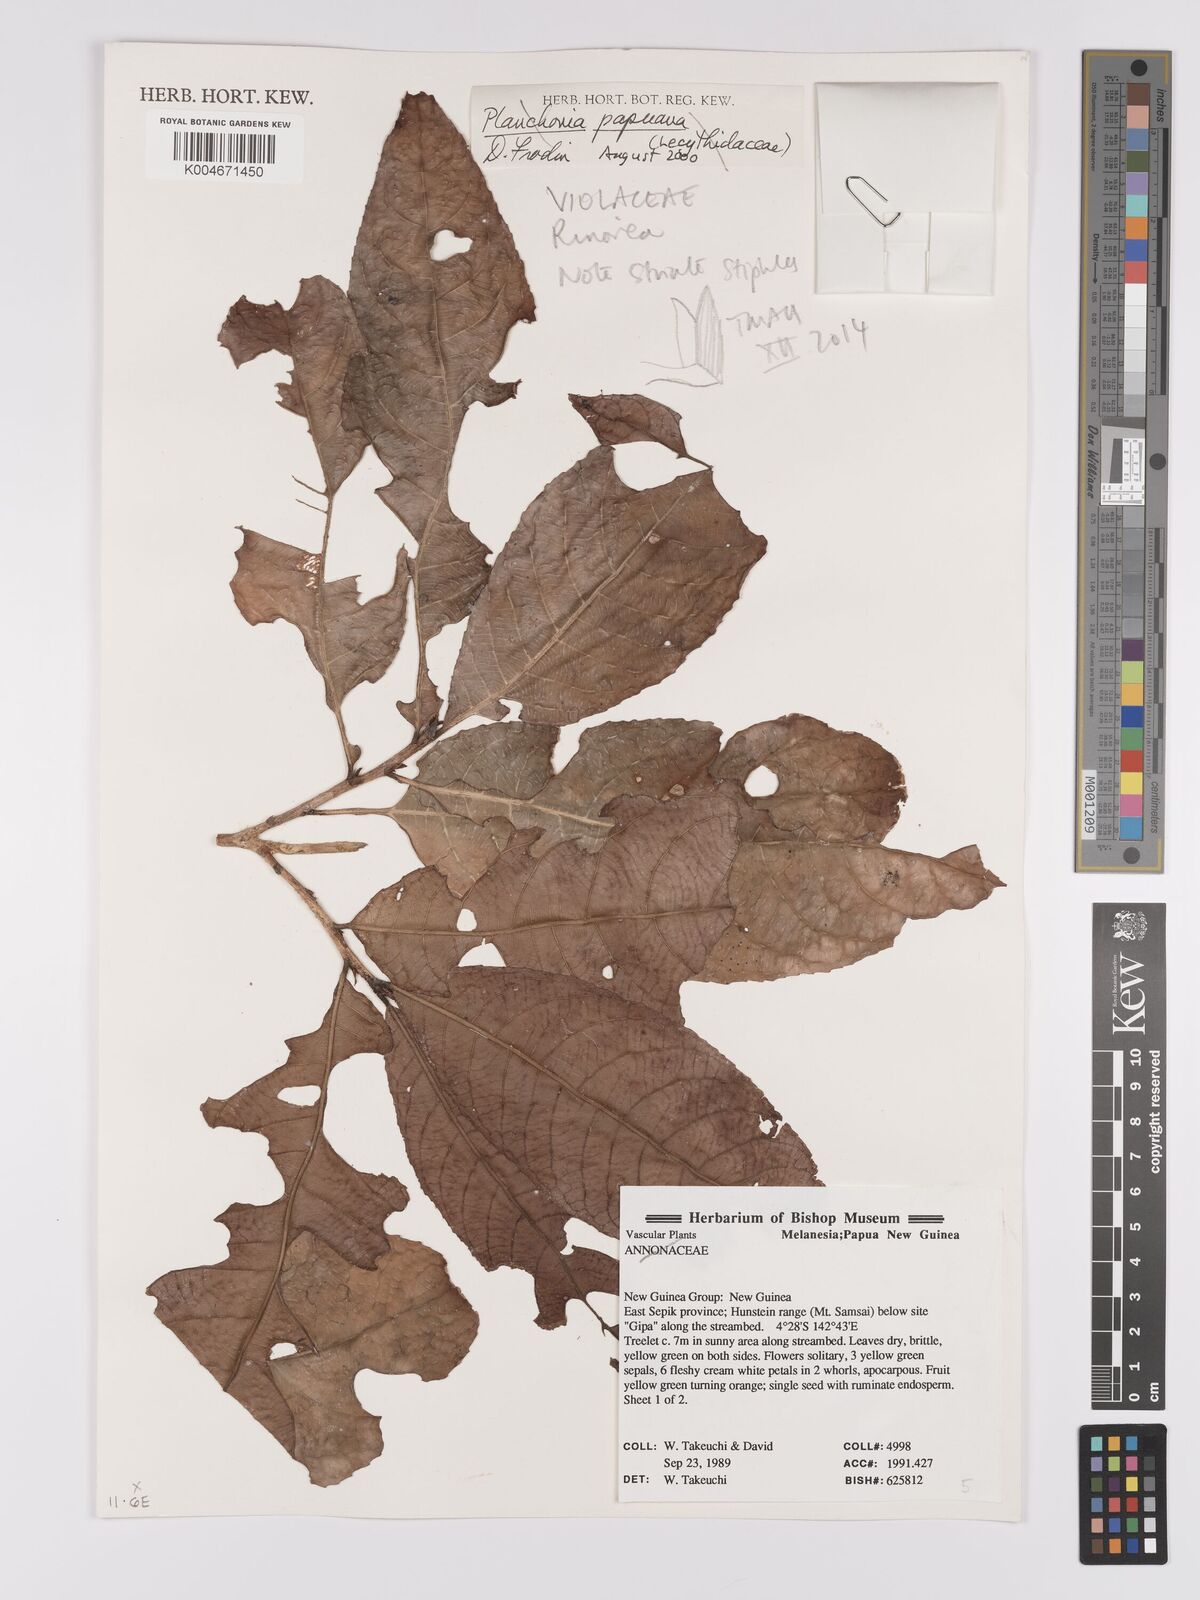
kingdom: Plantae
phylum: Tracheophyta
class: Magnoliopsida
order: Malpighiales
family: Violaceae
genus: Rinorea
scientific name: Rinorea
